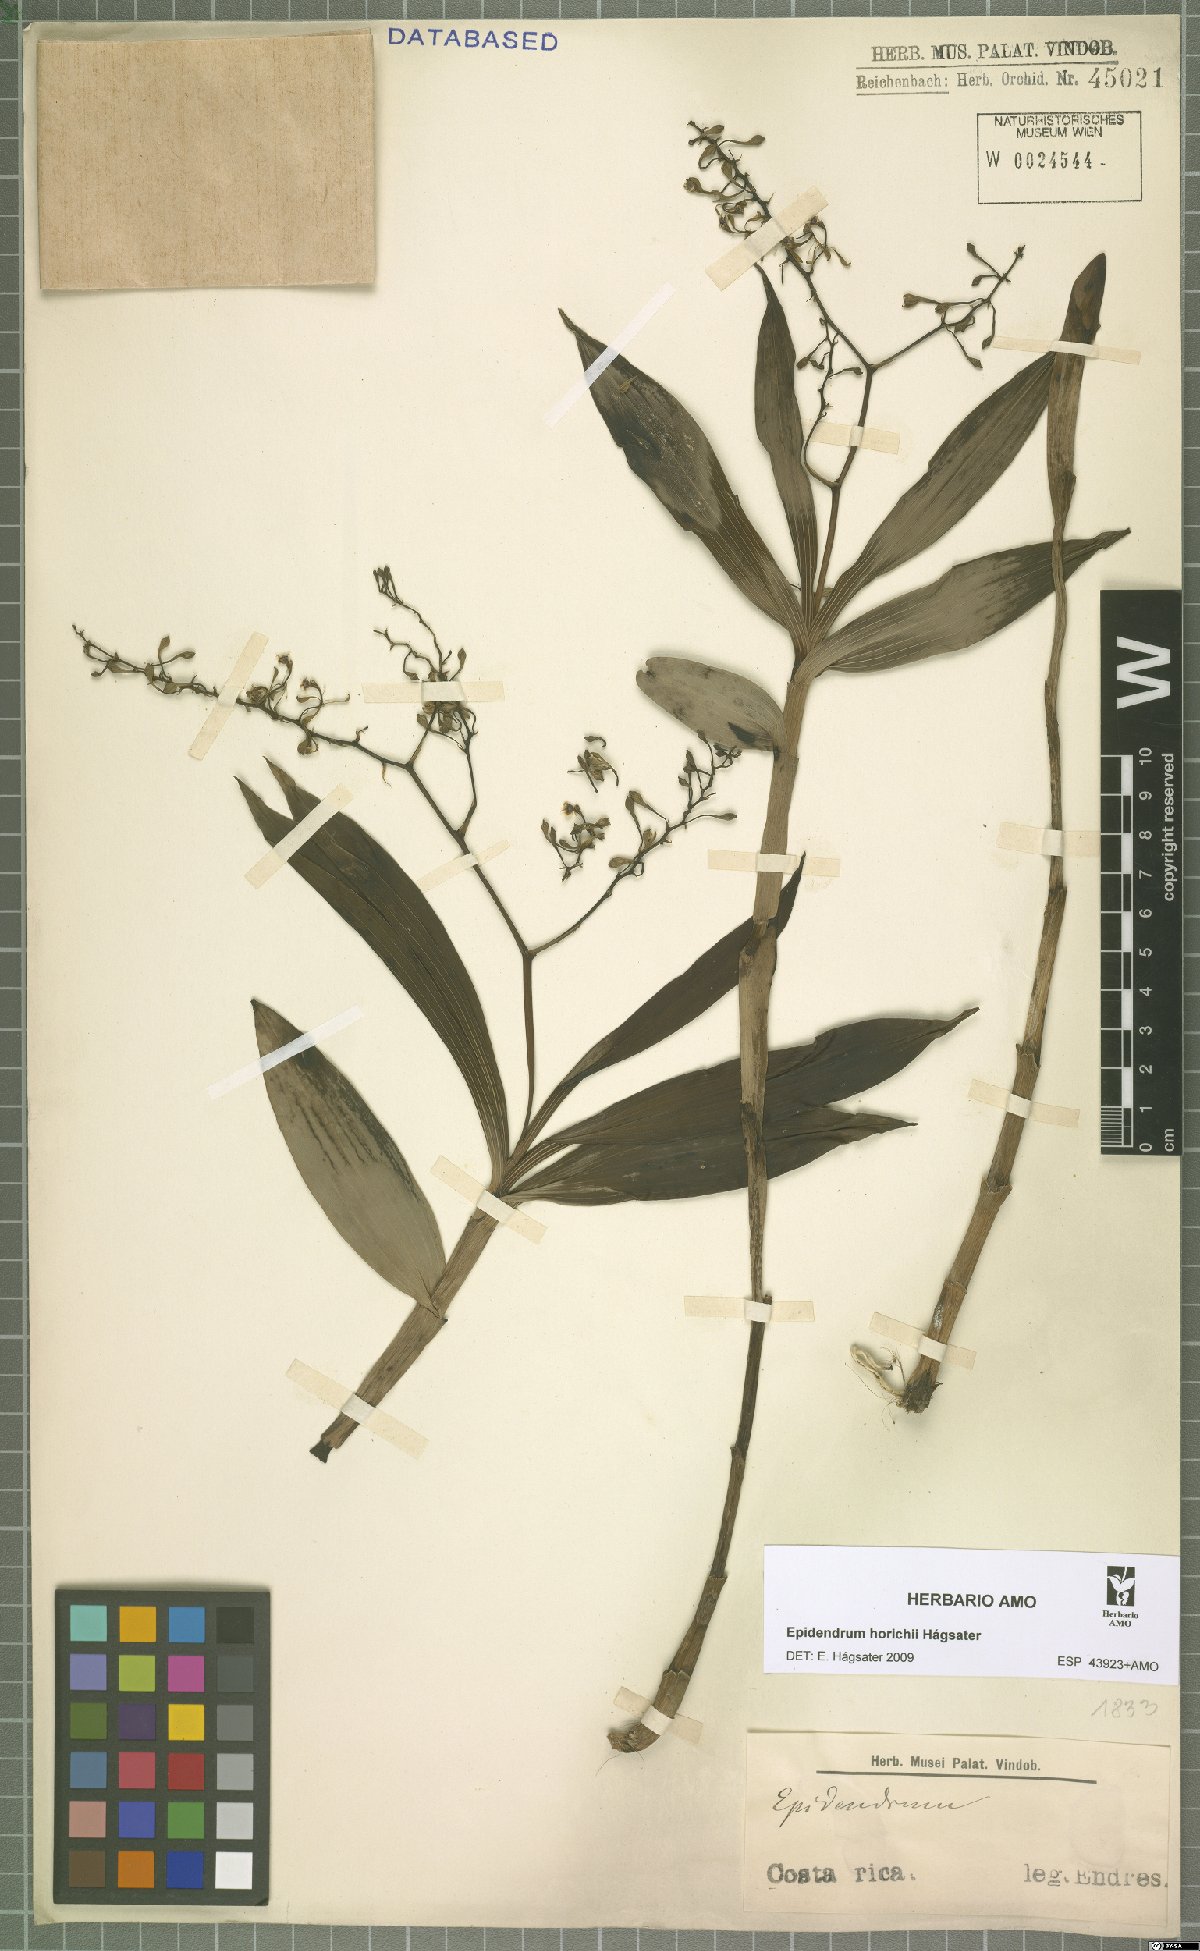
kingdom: Plantae
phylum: Tracheophyta
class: Liliopsida
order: Asparagales
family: Orchidaceae
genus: Epidendrum
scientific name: Epidendrum horichii
